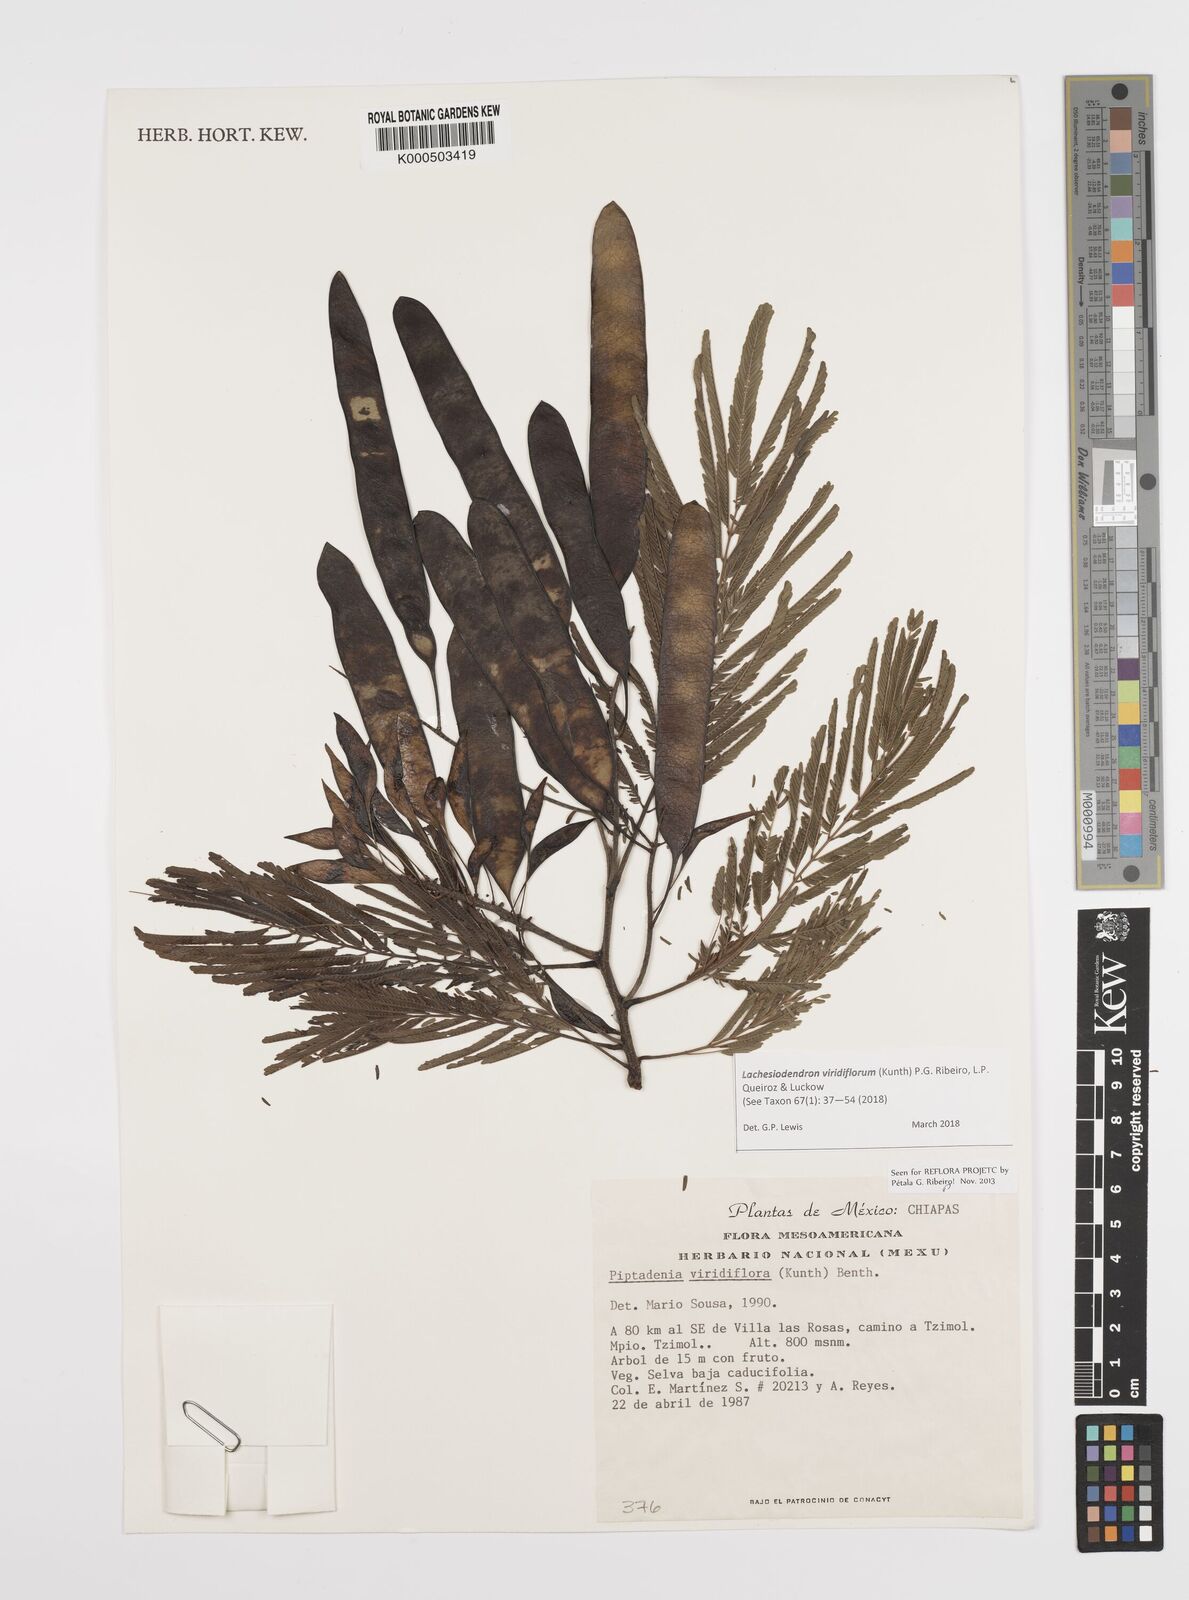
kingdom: Plantae
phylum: Tracheophyta
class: Magnoliopsida
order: Fabales
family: Fabaceae
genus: Lachesiodendron
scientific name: Lachesiodendron viridiflorum
